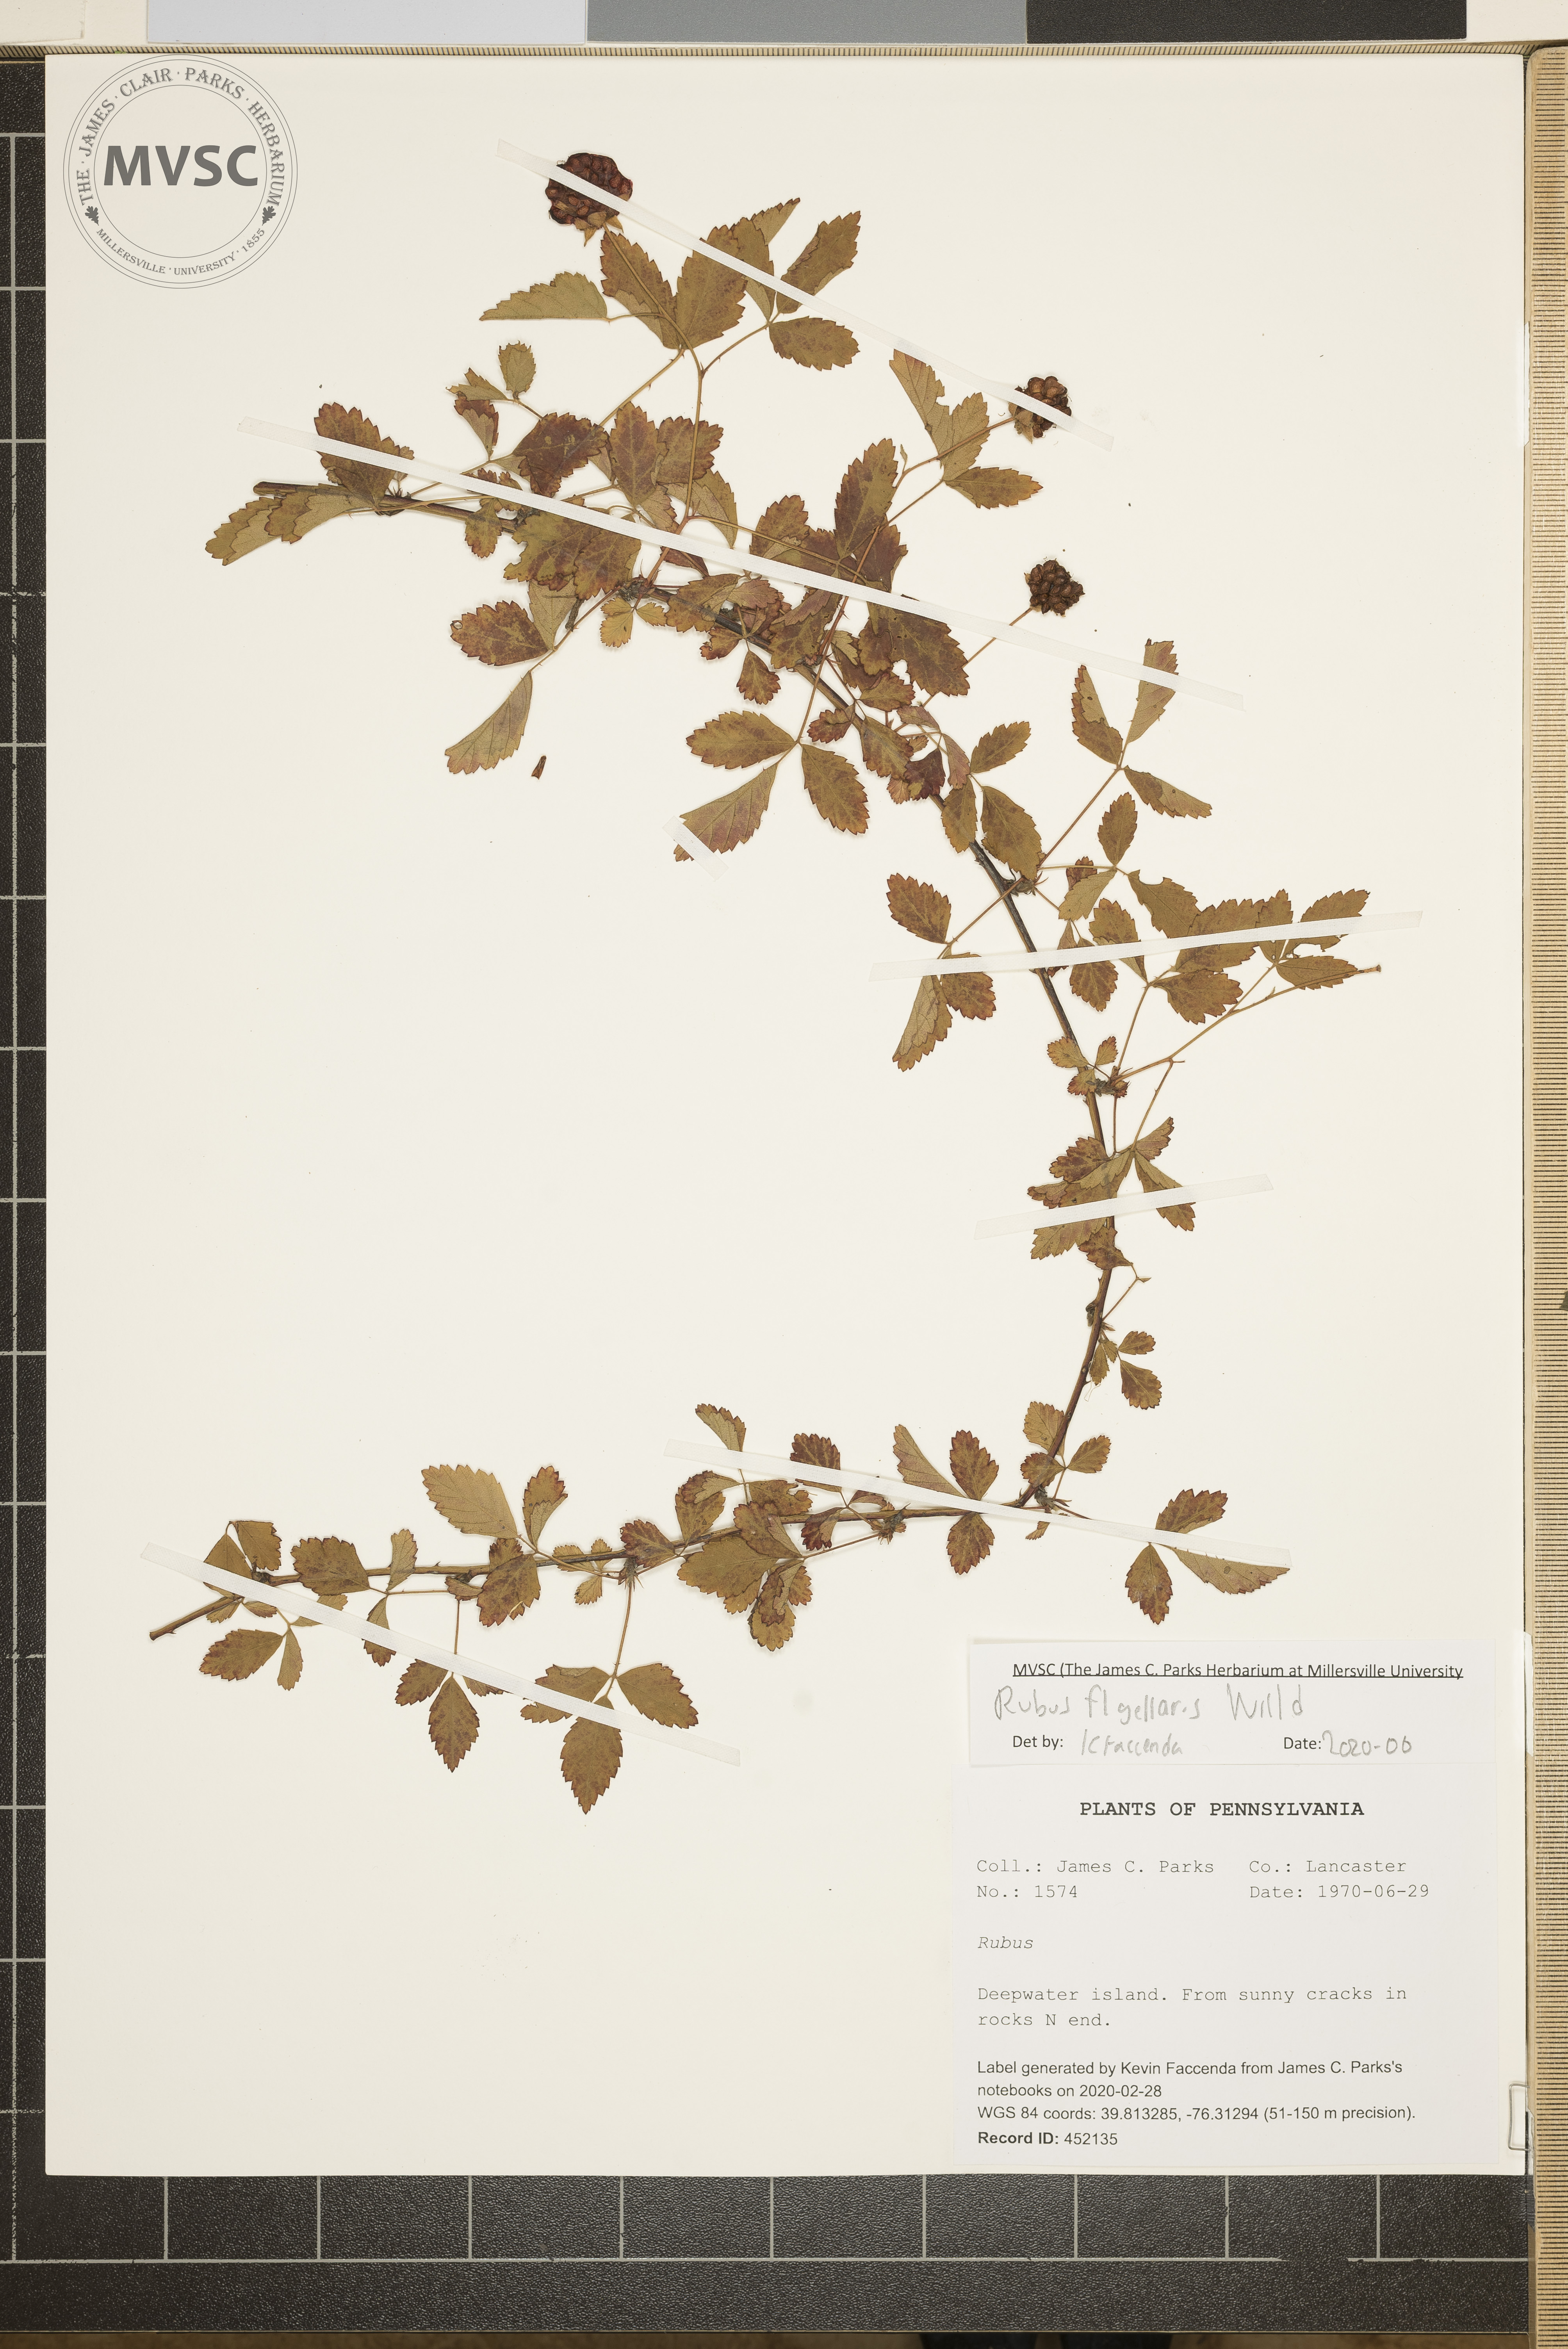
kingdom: Plantae
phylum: Tracheophyta
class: Magnoliopsida
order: Rosales
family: Rosaceae
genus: Rubus
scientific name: Rubus flagellaris
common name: American dewberry
